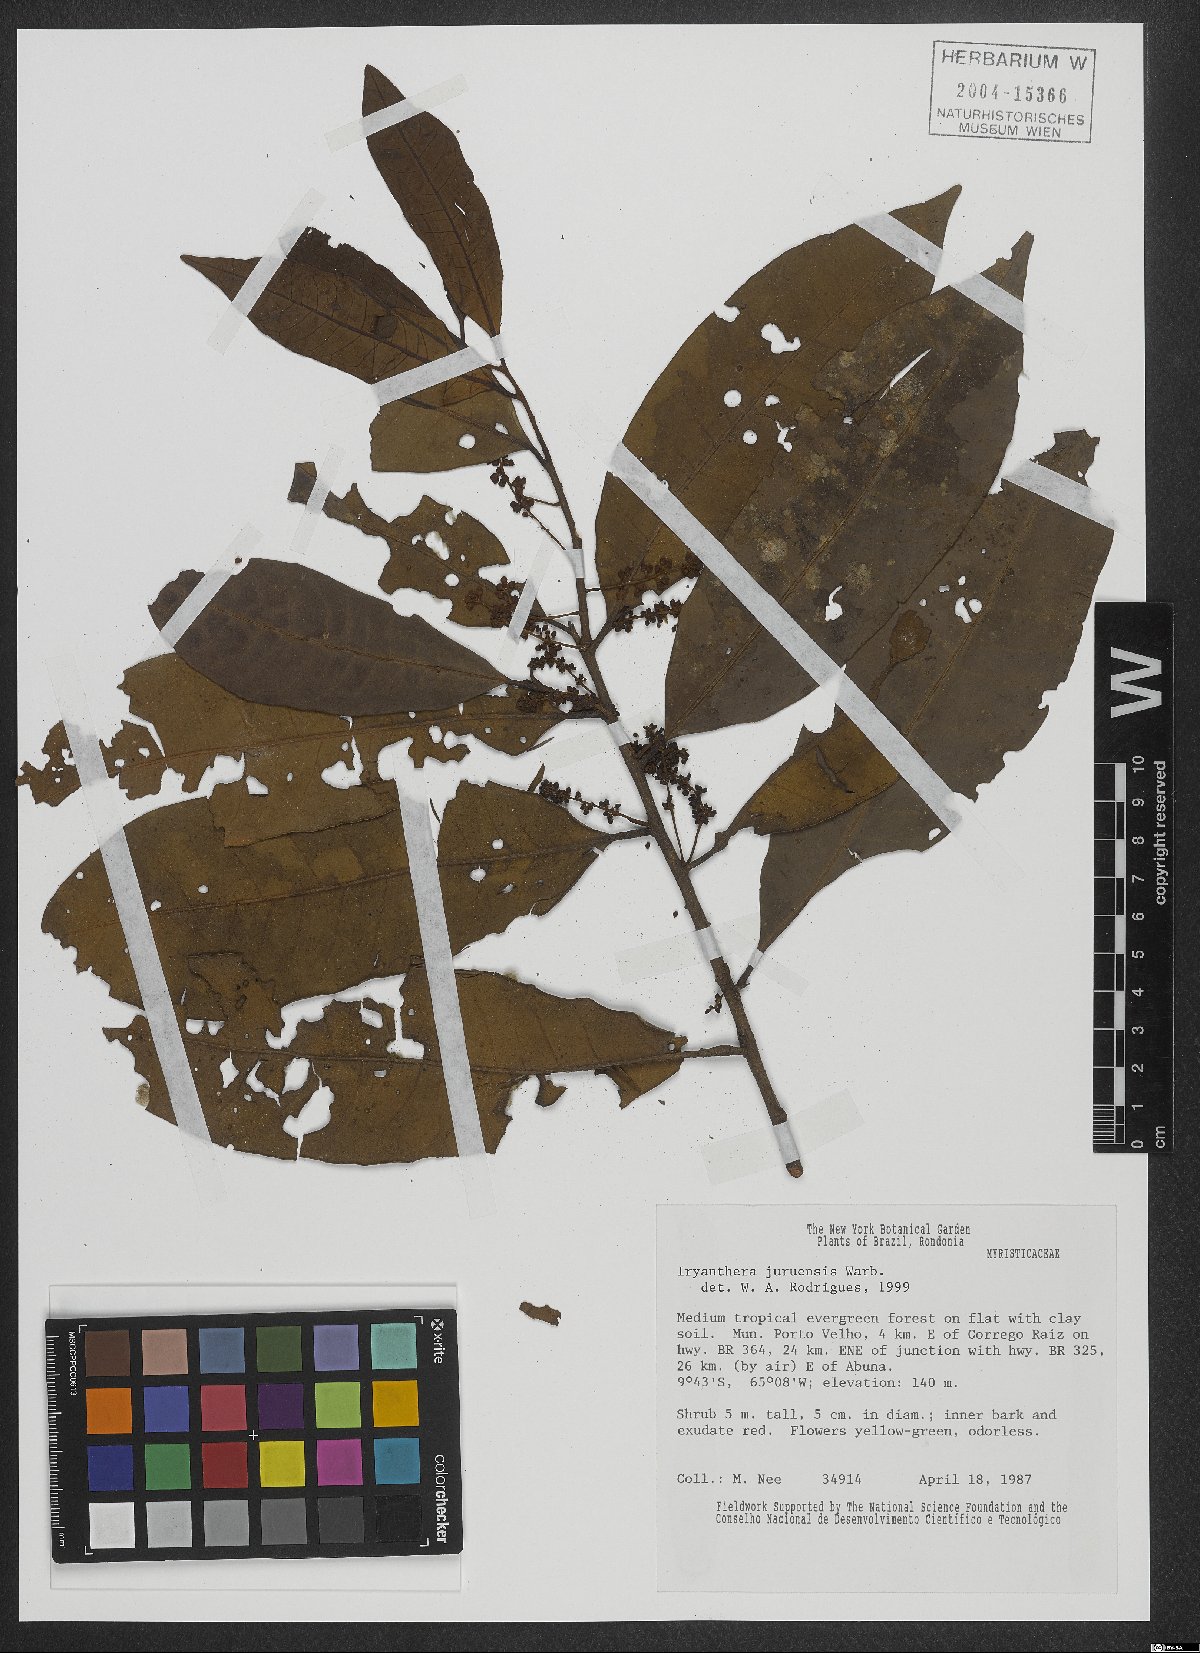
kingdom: Plantae
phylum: Tracheophyta
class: Magnoliopsida
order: Magnoliales
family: Myristicaceae
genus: Iryanthera
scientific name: Iryanthera juruensis
